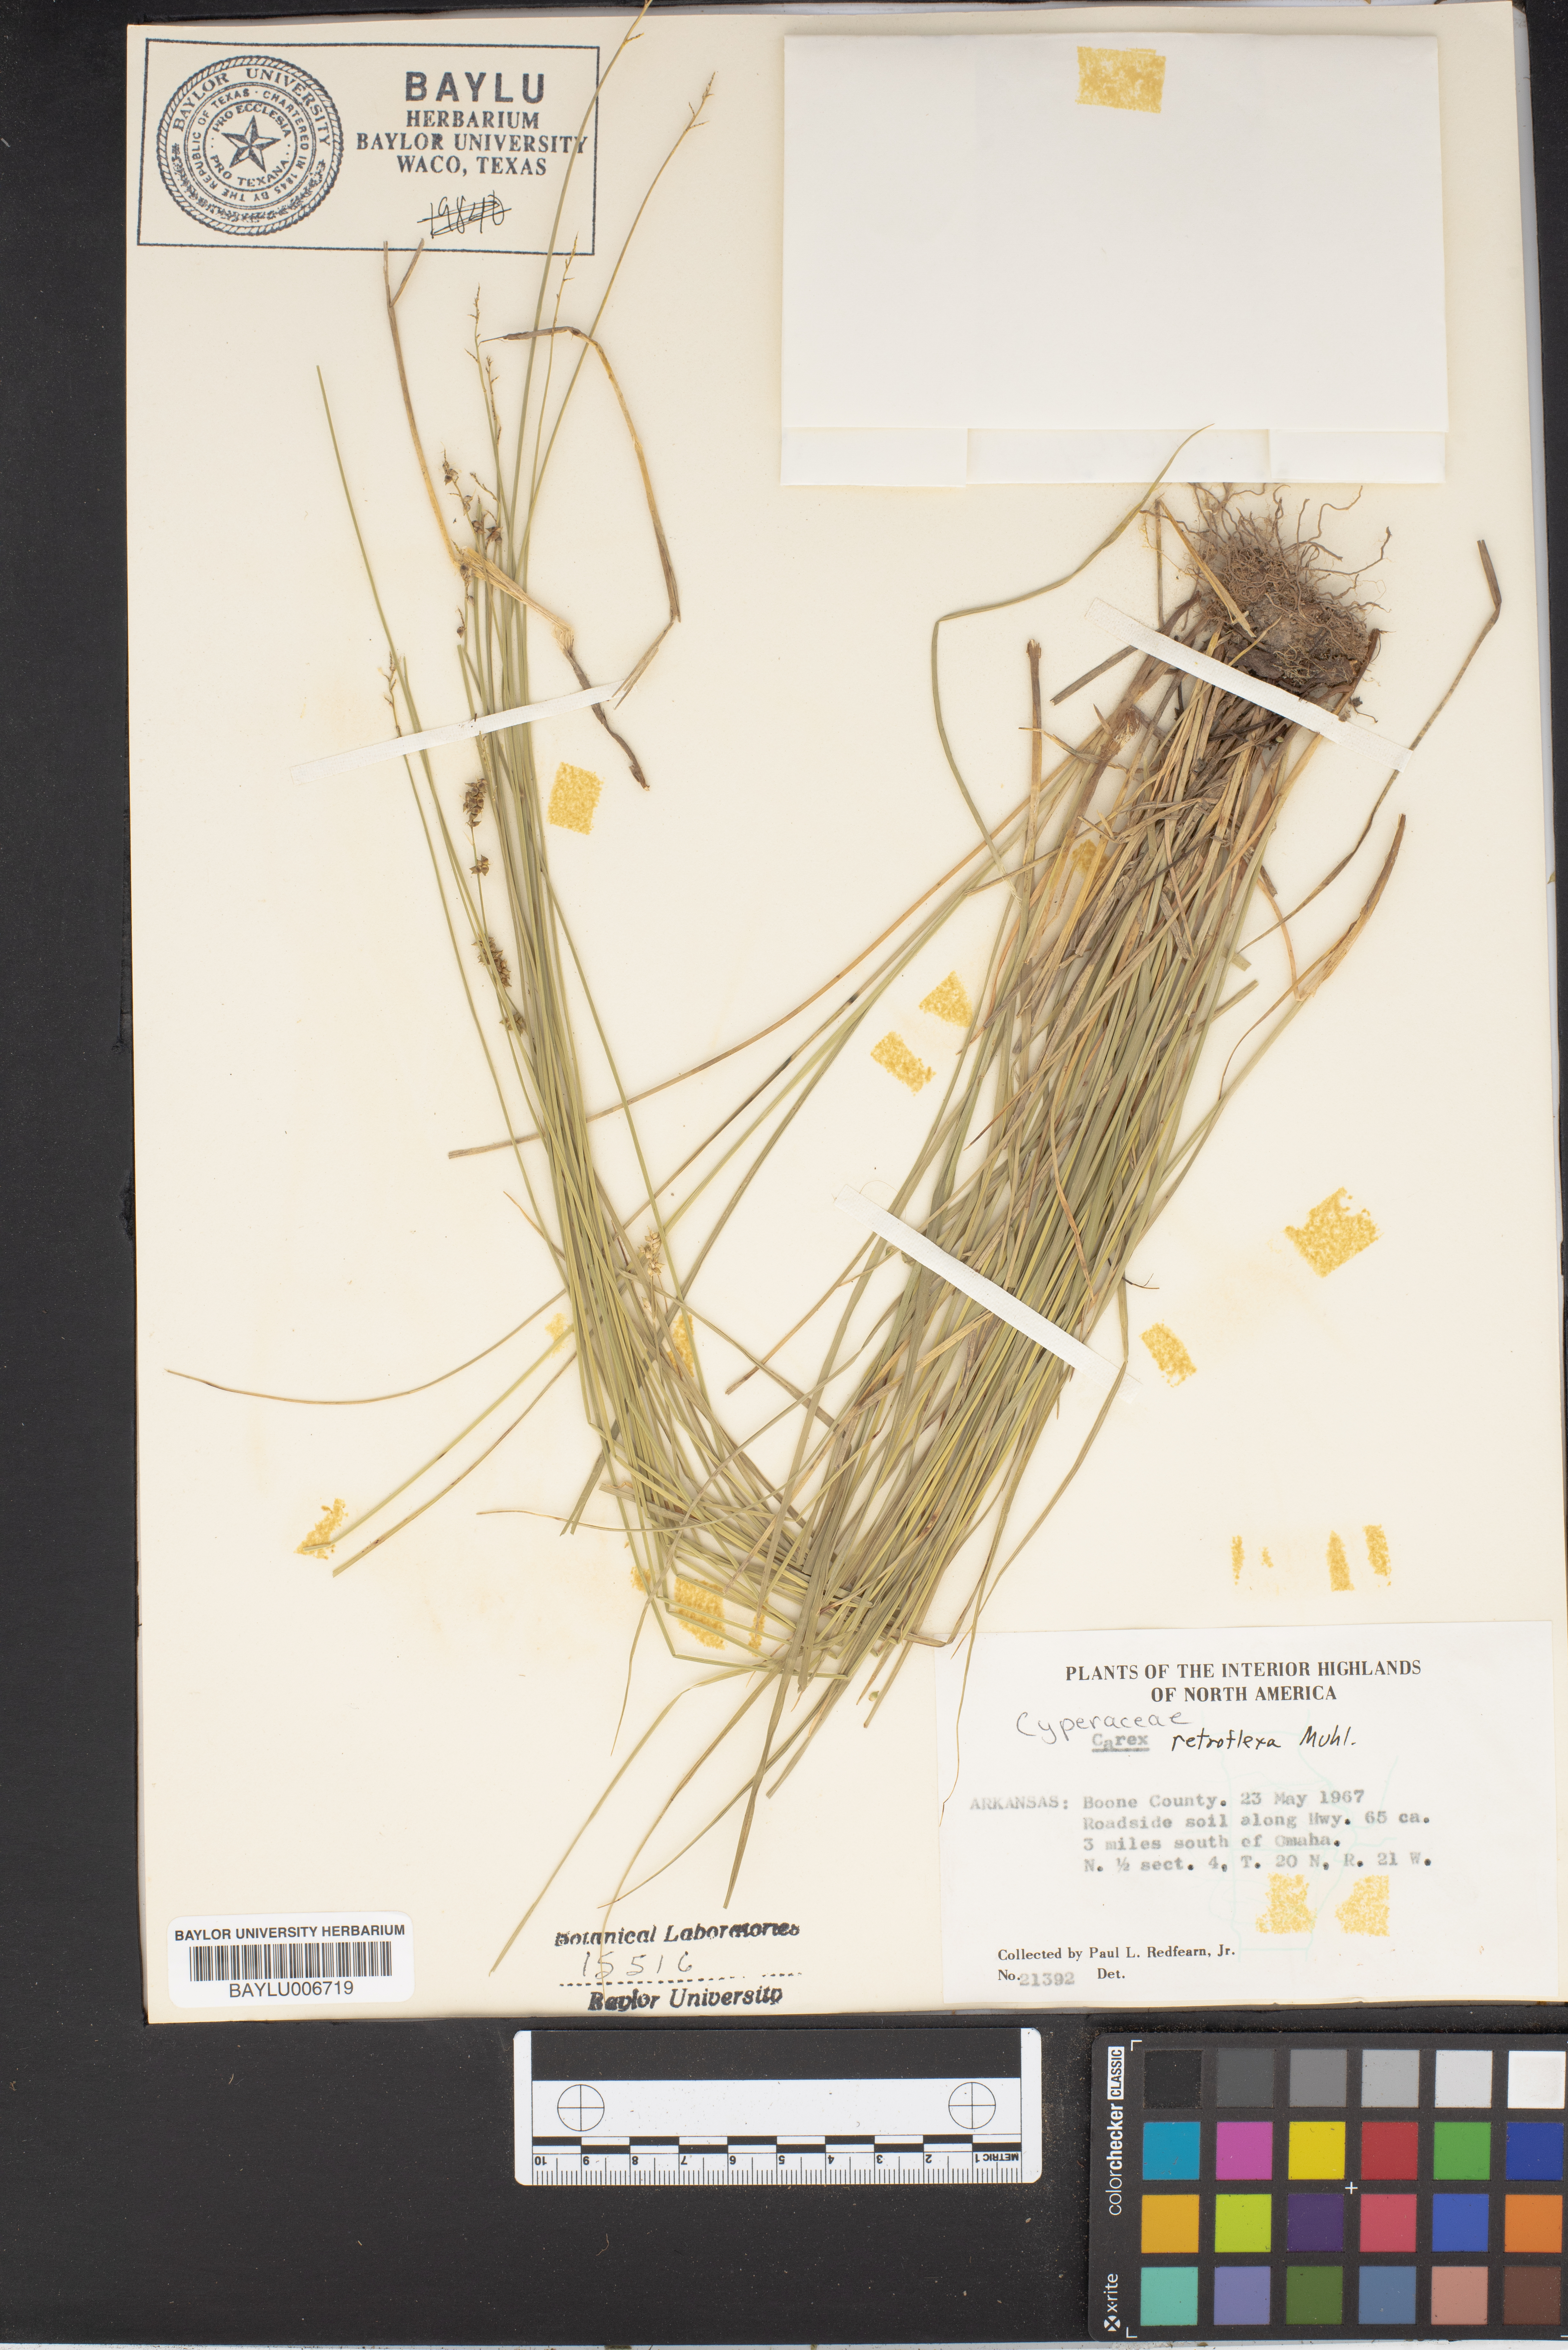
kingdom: Plantae
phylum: Tracheophyta
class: Liliopsida
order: Poales
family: Cyperaceae
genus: Carex
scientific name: Carex retroflexa
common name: Reflexed sedge
